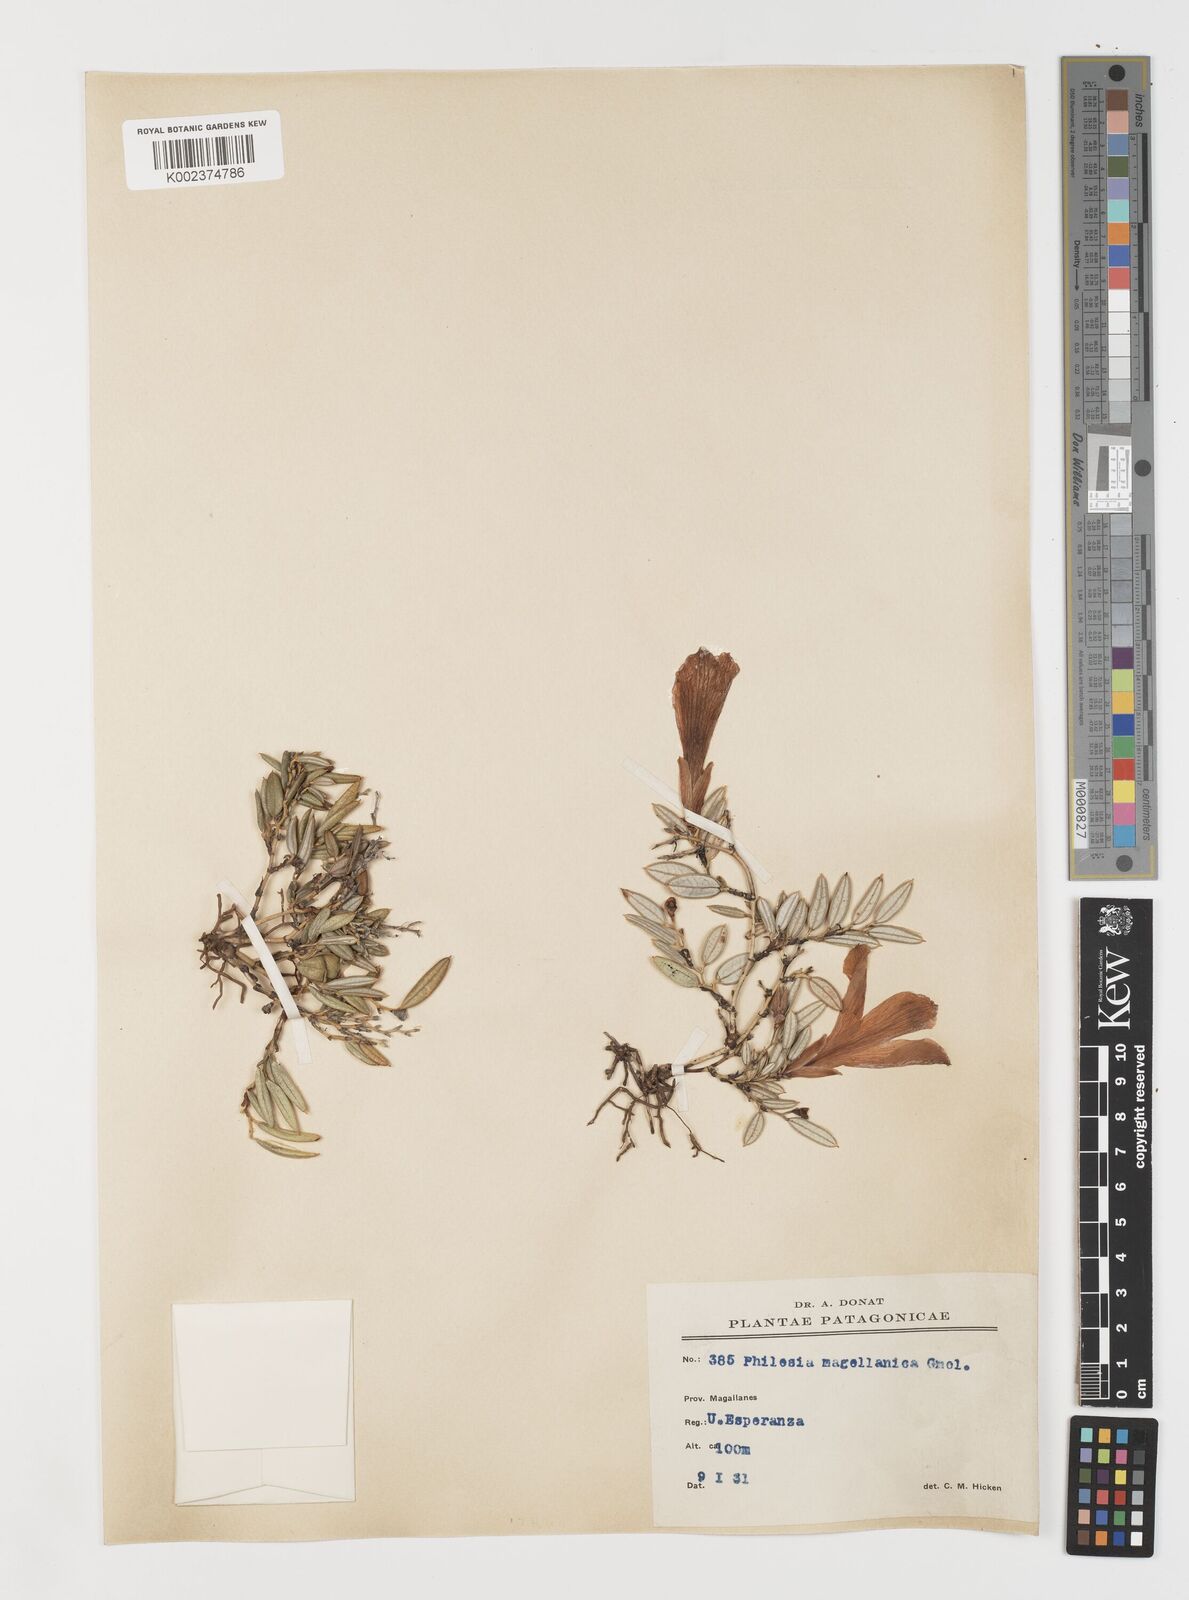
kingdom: Plantae
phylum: Tracheophyta
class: Liliopsida
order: Liliales
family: Philesiaceae
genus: Philesia
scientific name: Philesia magellanica
